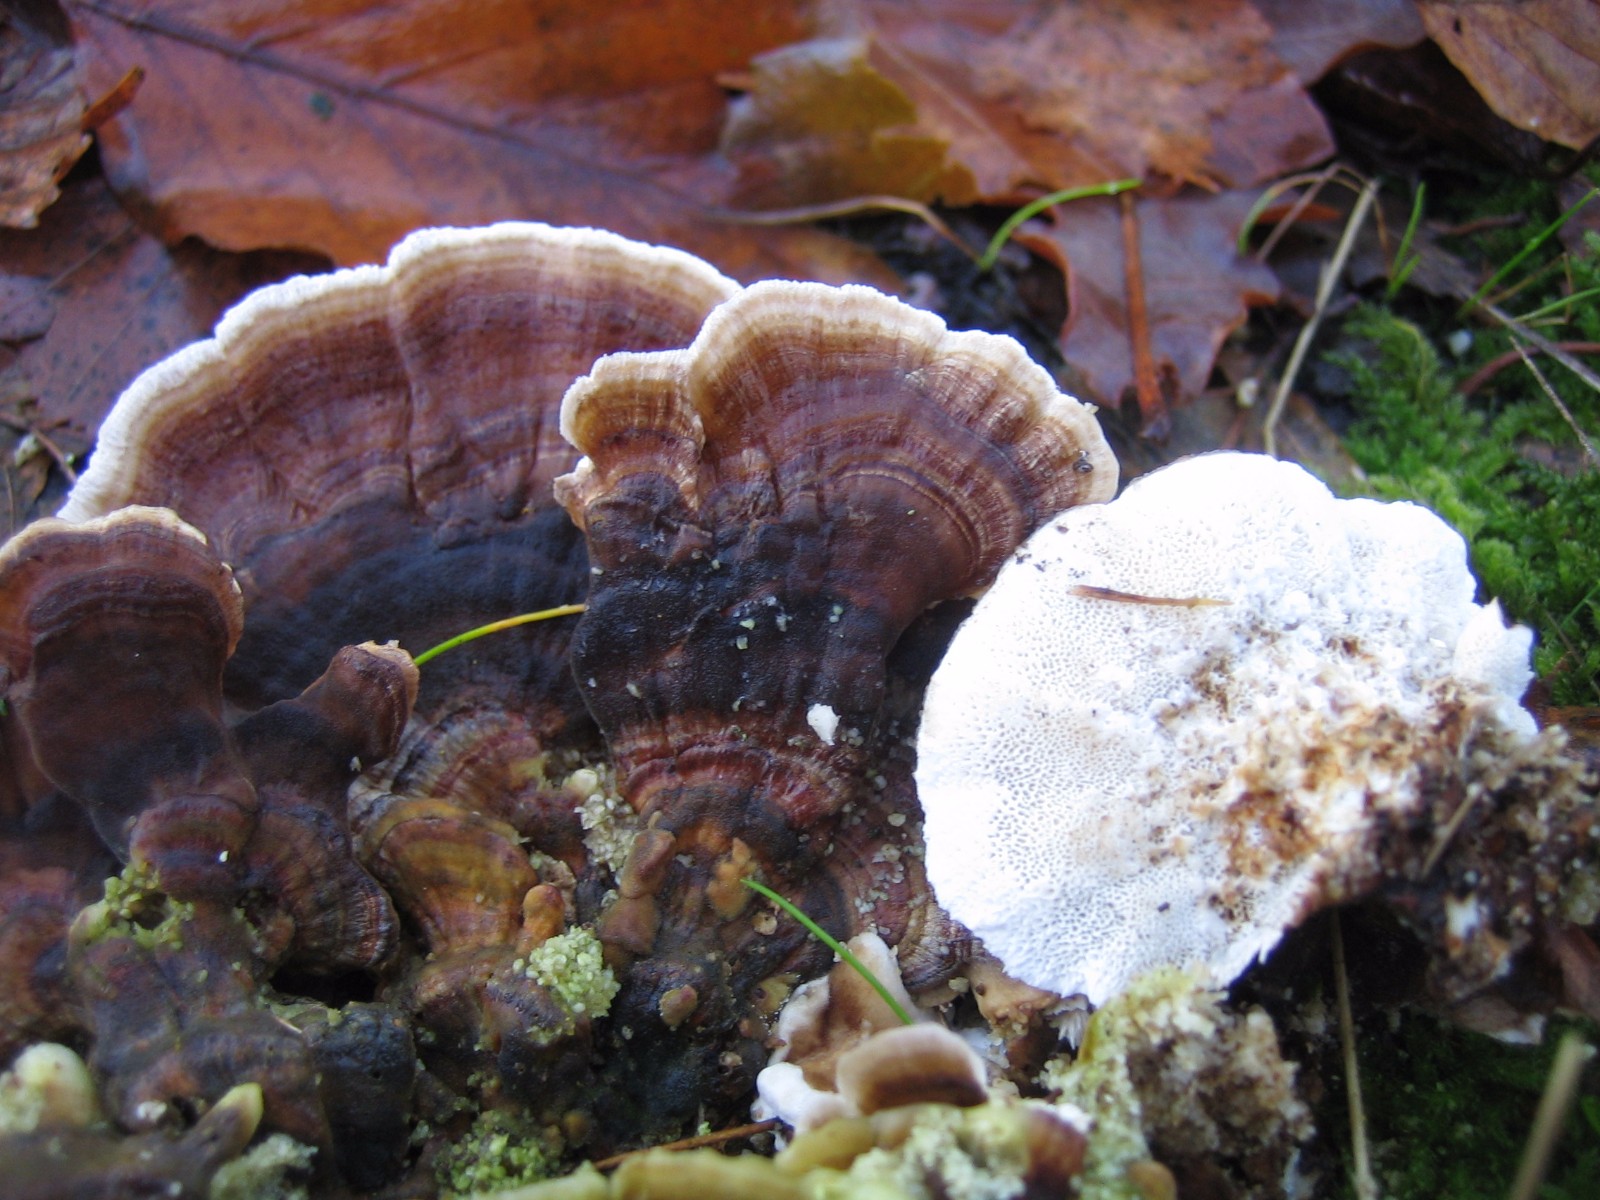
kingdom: Fungi
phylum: Basidiomycota
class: Agaricomycetes
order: Polyporales
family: Polyporaceae
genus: Trametes
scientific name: Trametes versicolor
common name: broget læderporesvamp
